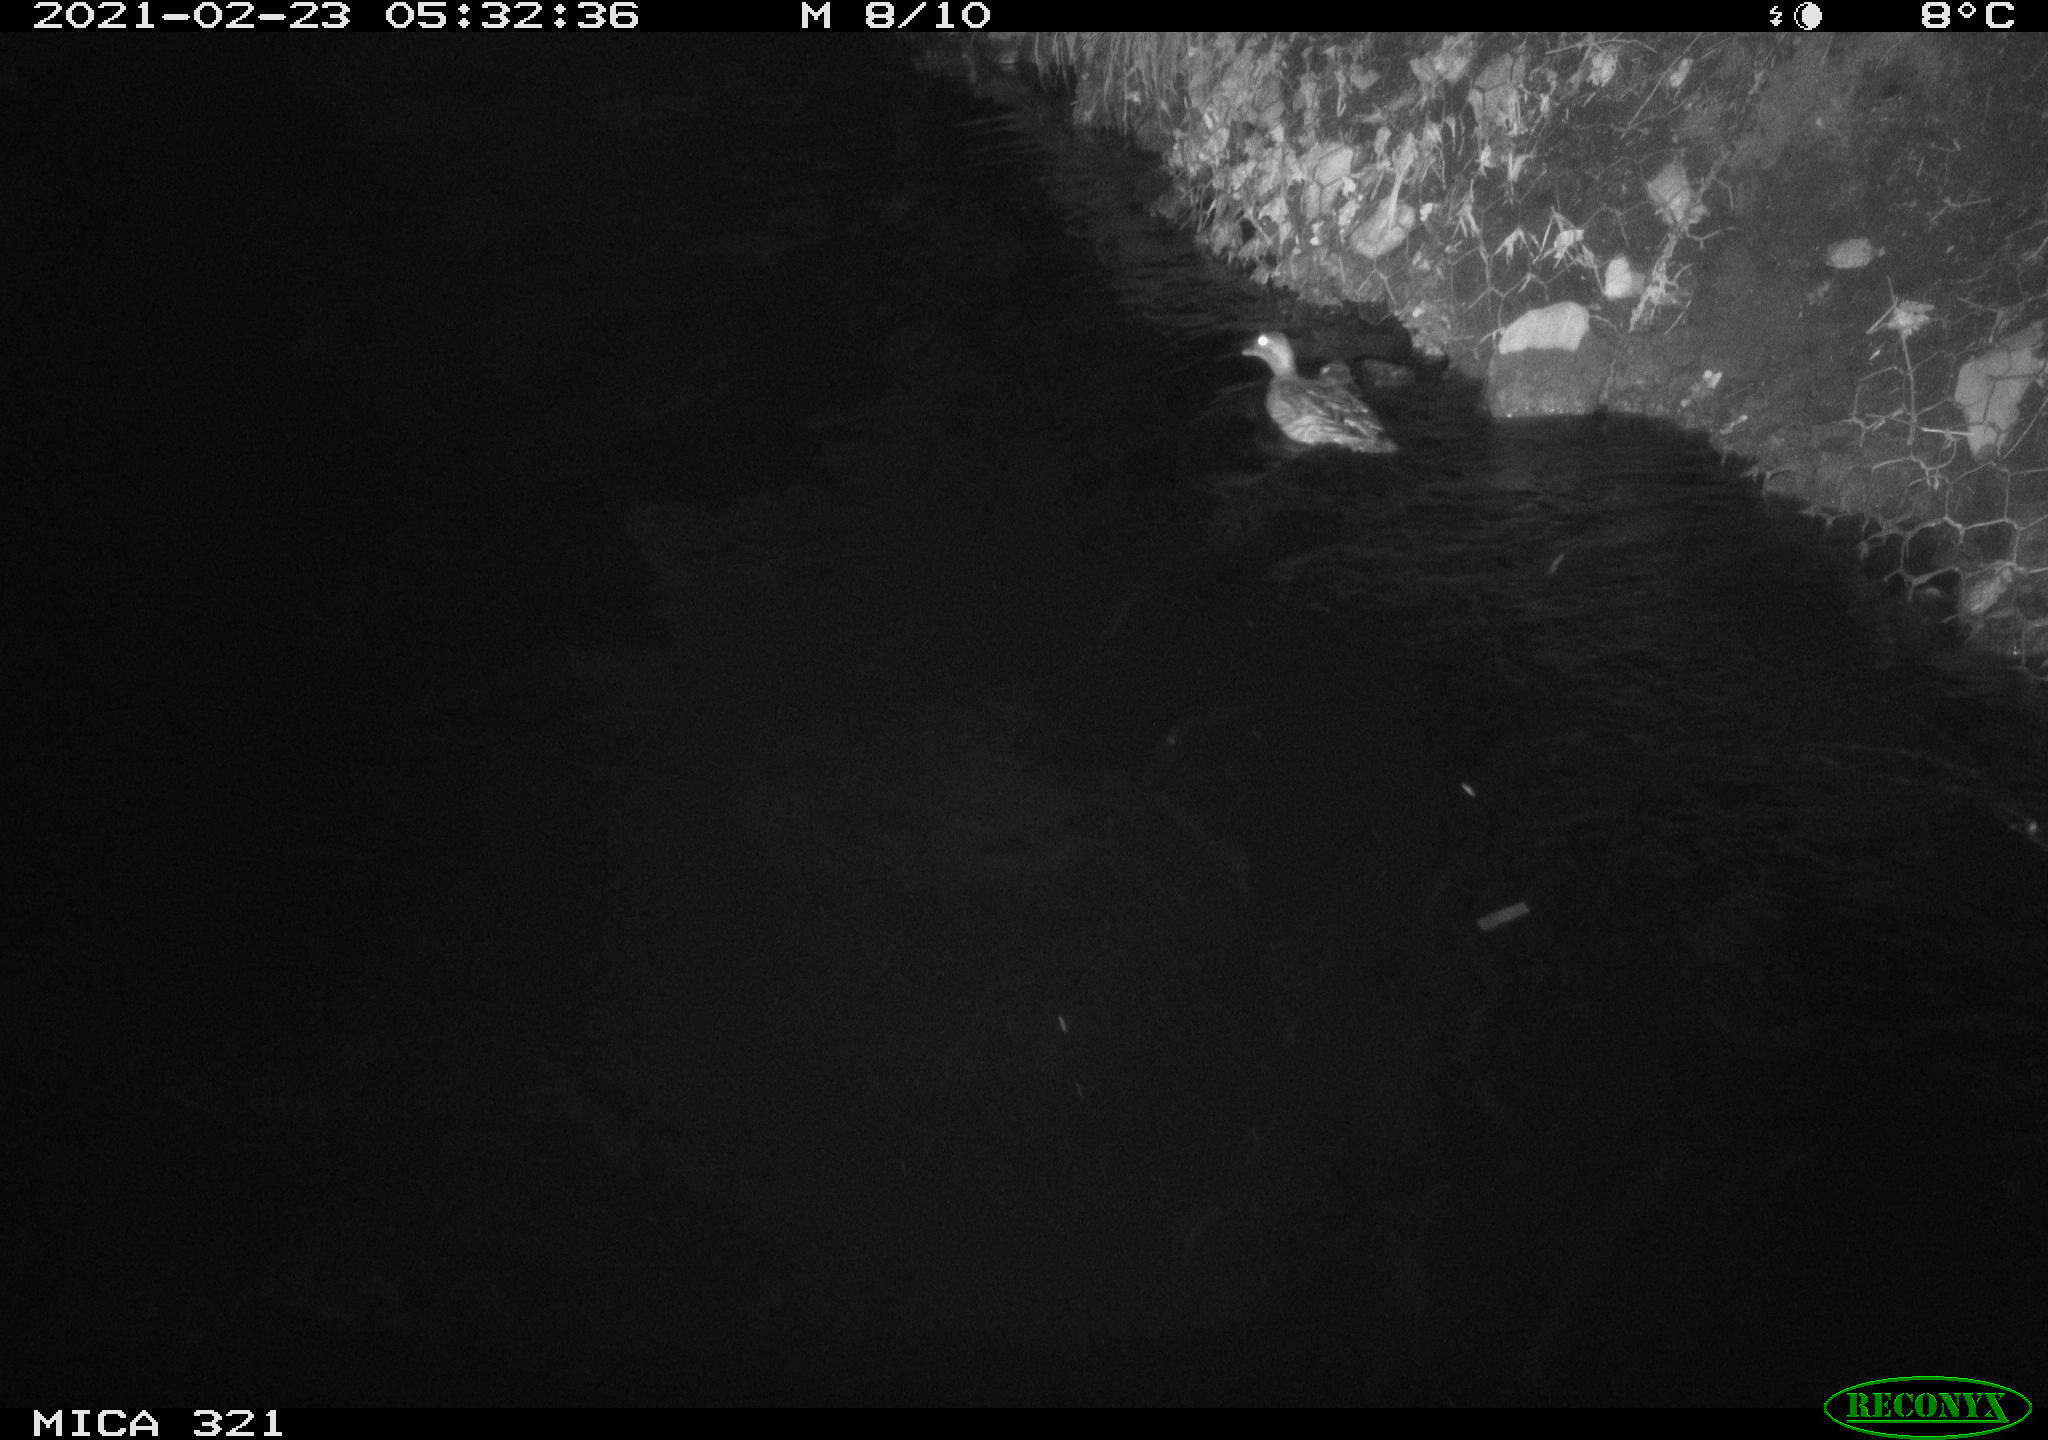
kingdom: Animalia
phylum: Chordata
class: Aves
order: Anseriformes
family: Anatidae
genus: Anas
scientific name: Anas platyrhynchos
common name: Mallard
